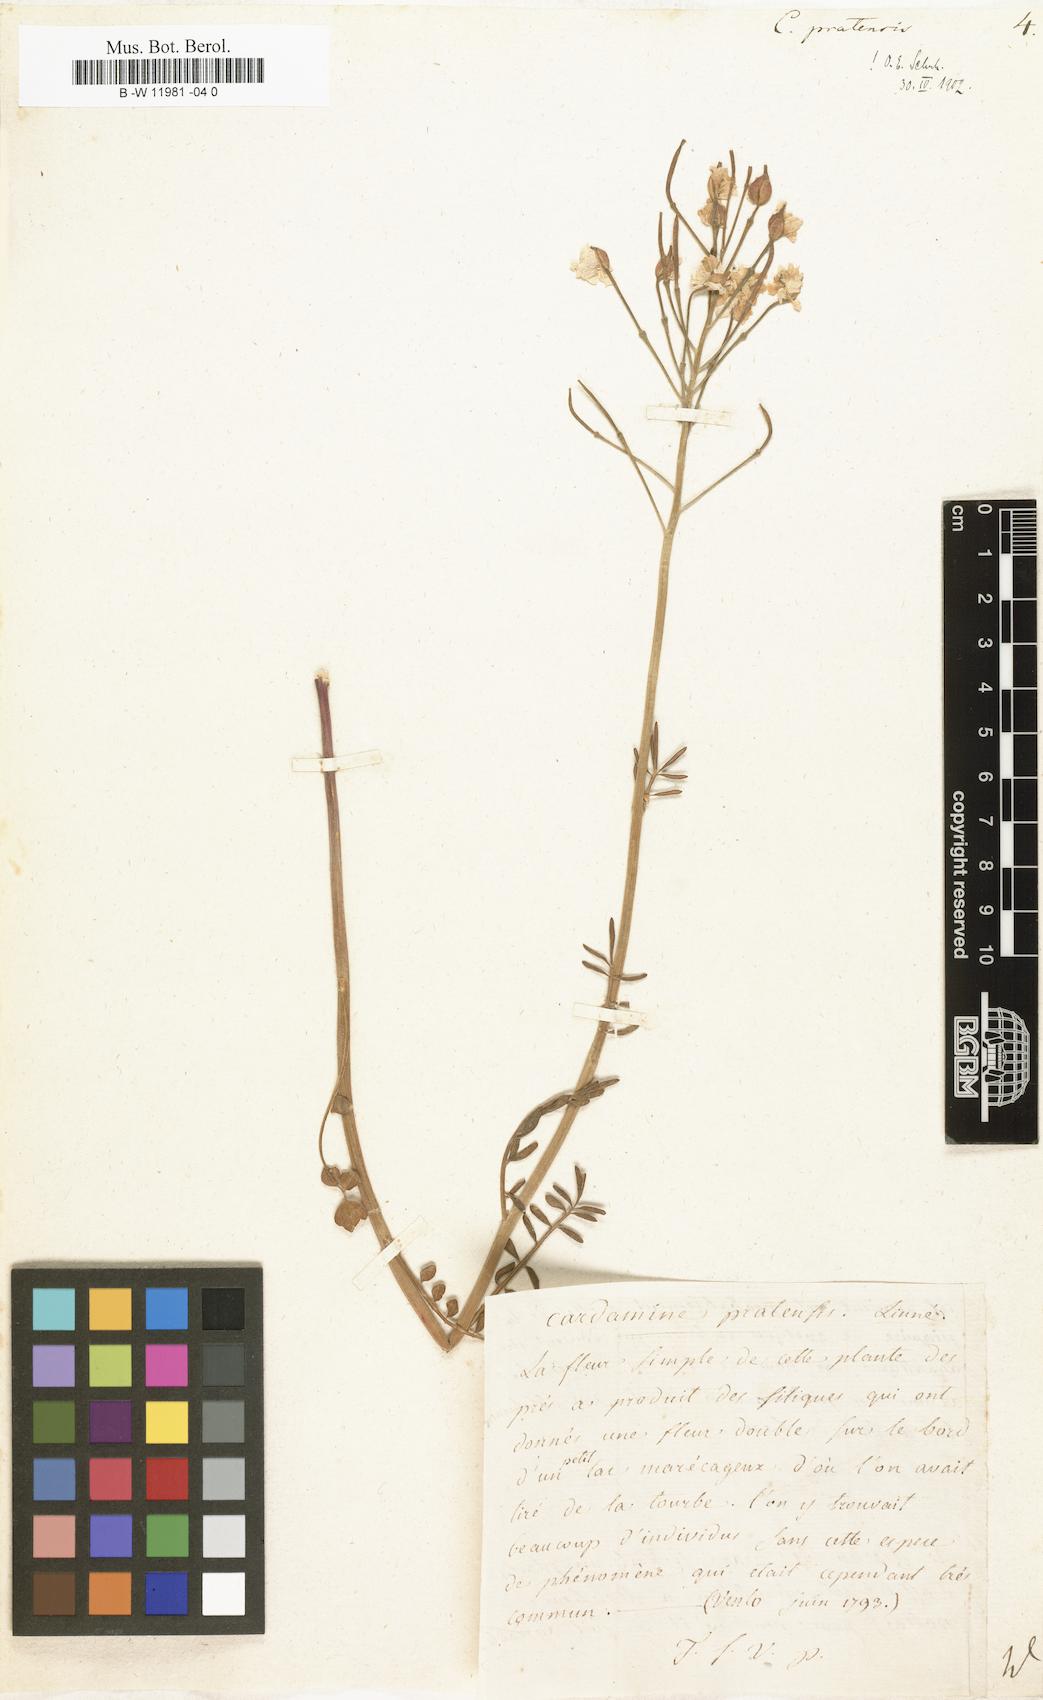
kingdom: Plantae
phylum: Tracheophyta
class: Magnoliopsida
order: Brassicales
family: Brassicaceae
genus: Cardamine
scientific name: Cardamine pratensis
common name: Cuckoo flower
